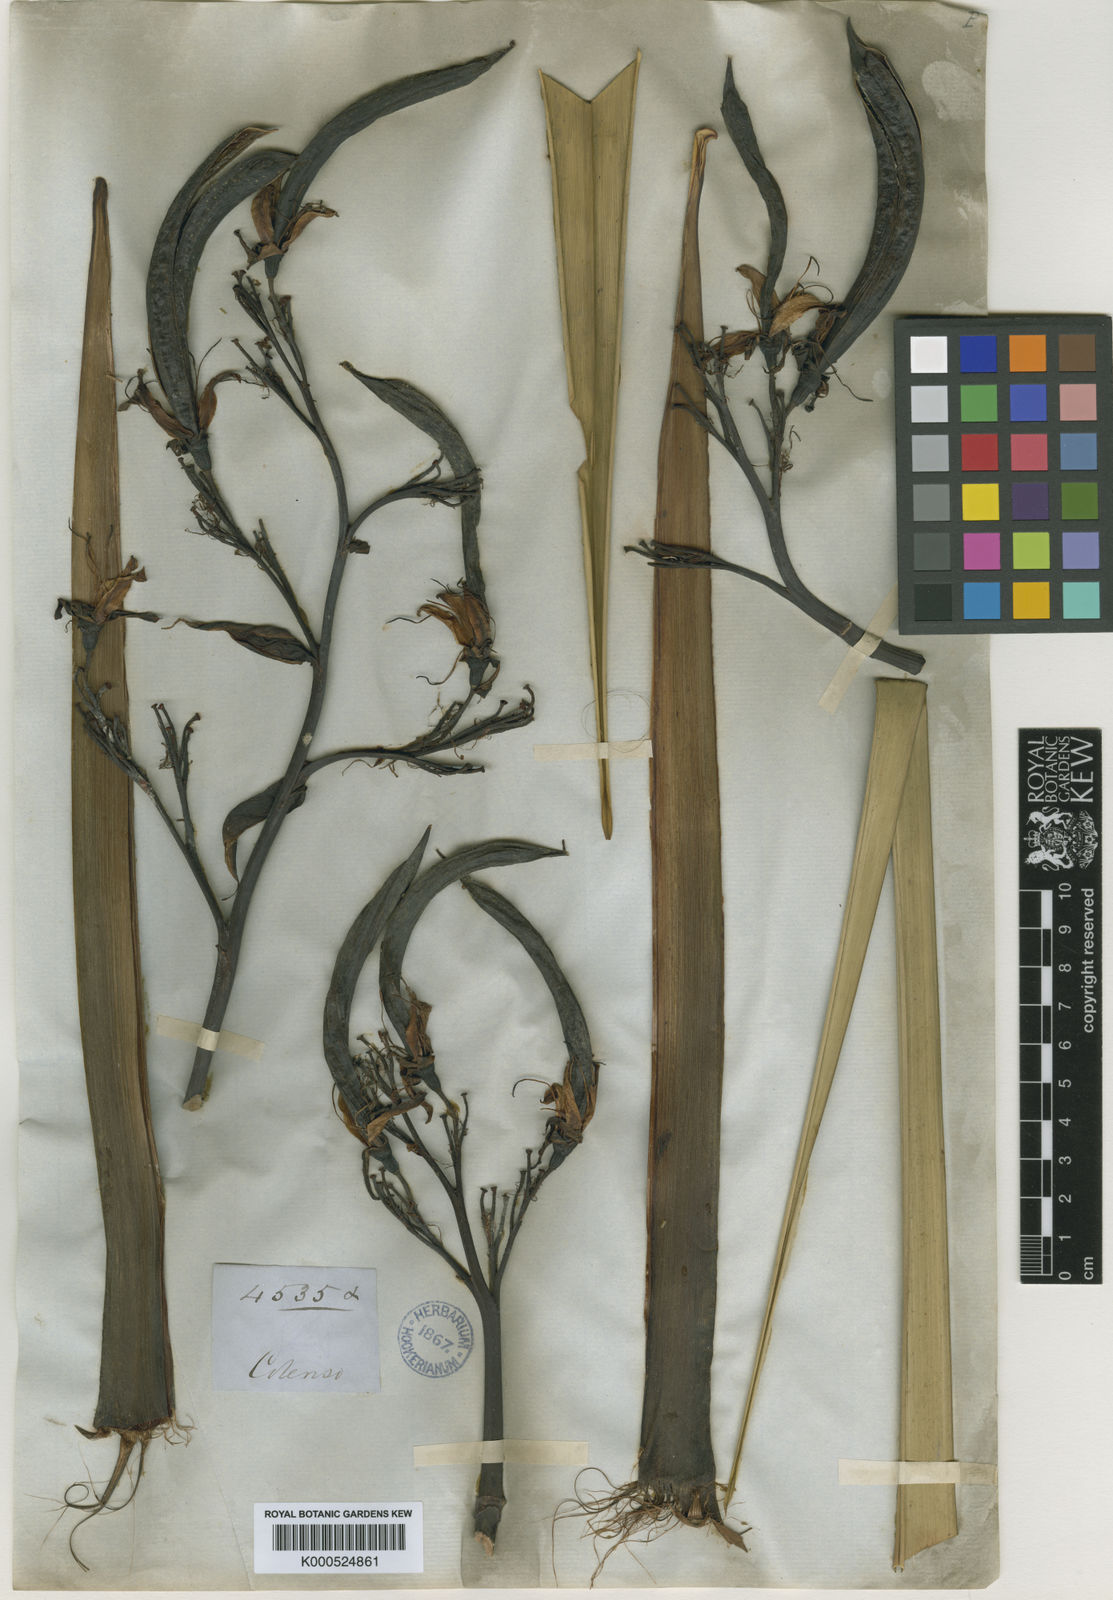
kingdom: Plantae
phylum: Tracheophyta
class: Liliopsida
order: Asparagales
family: Asphodelaceae
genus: Phormium
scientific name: Phormium tenax
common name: New zealand flax
